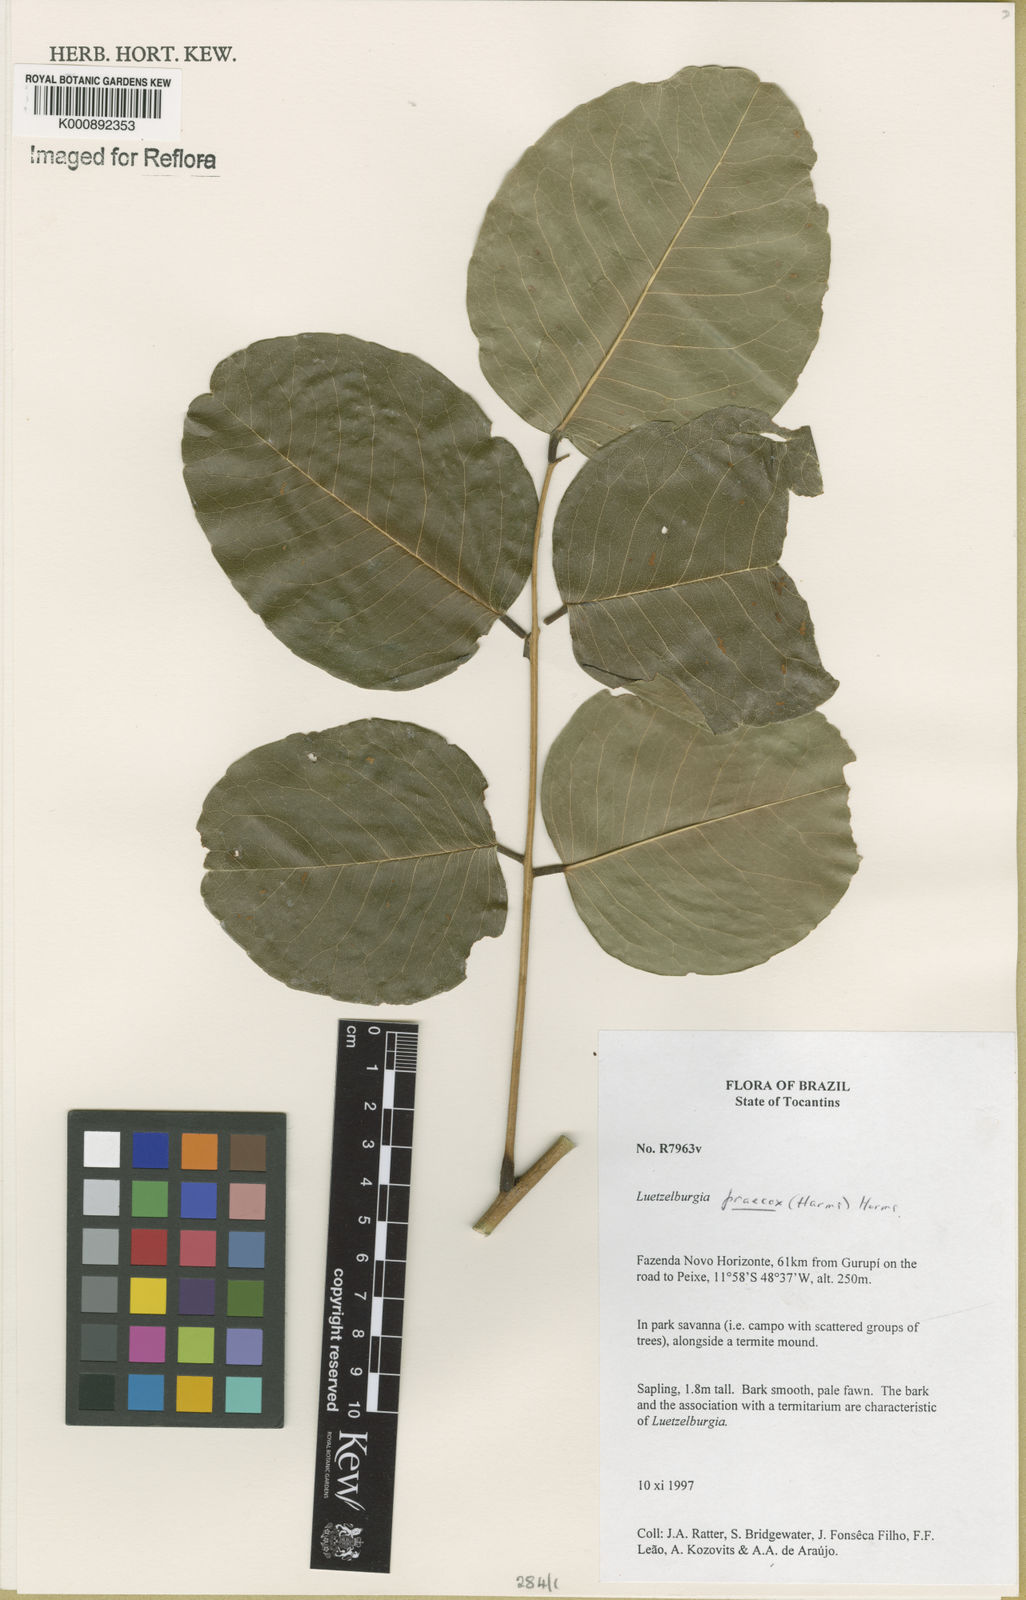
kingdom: Plantae
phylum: Tracheophyta
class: Magnoliopsida
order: Fabales
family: Fabaceae
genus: Luetzelburgia
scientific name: Luetzelburgia praecox
